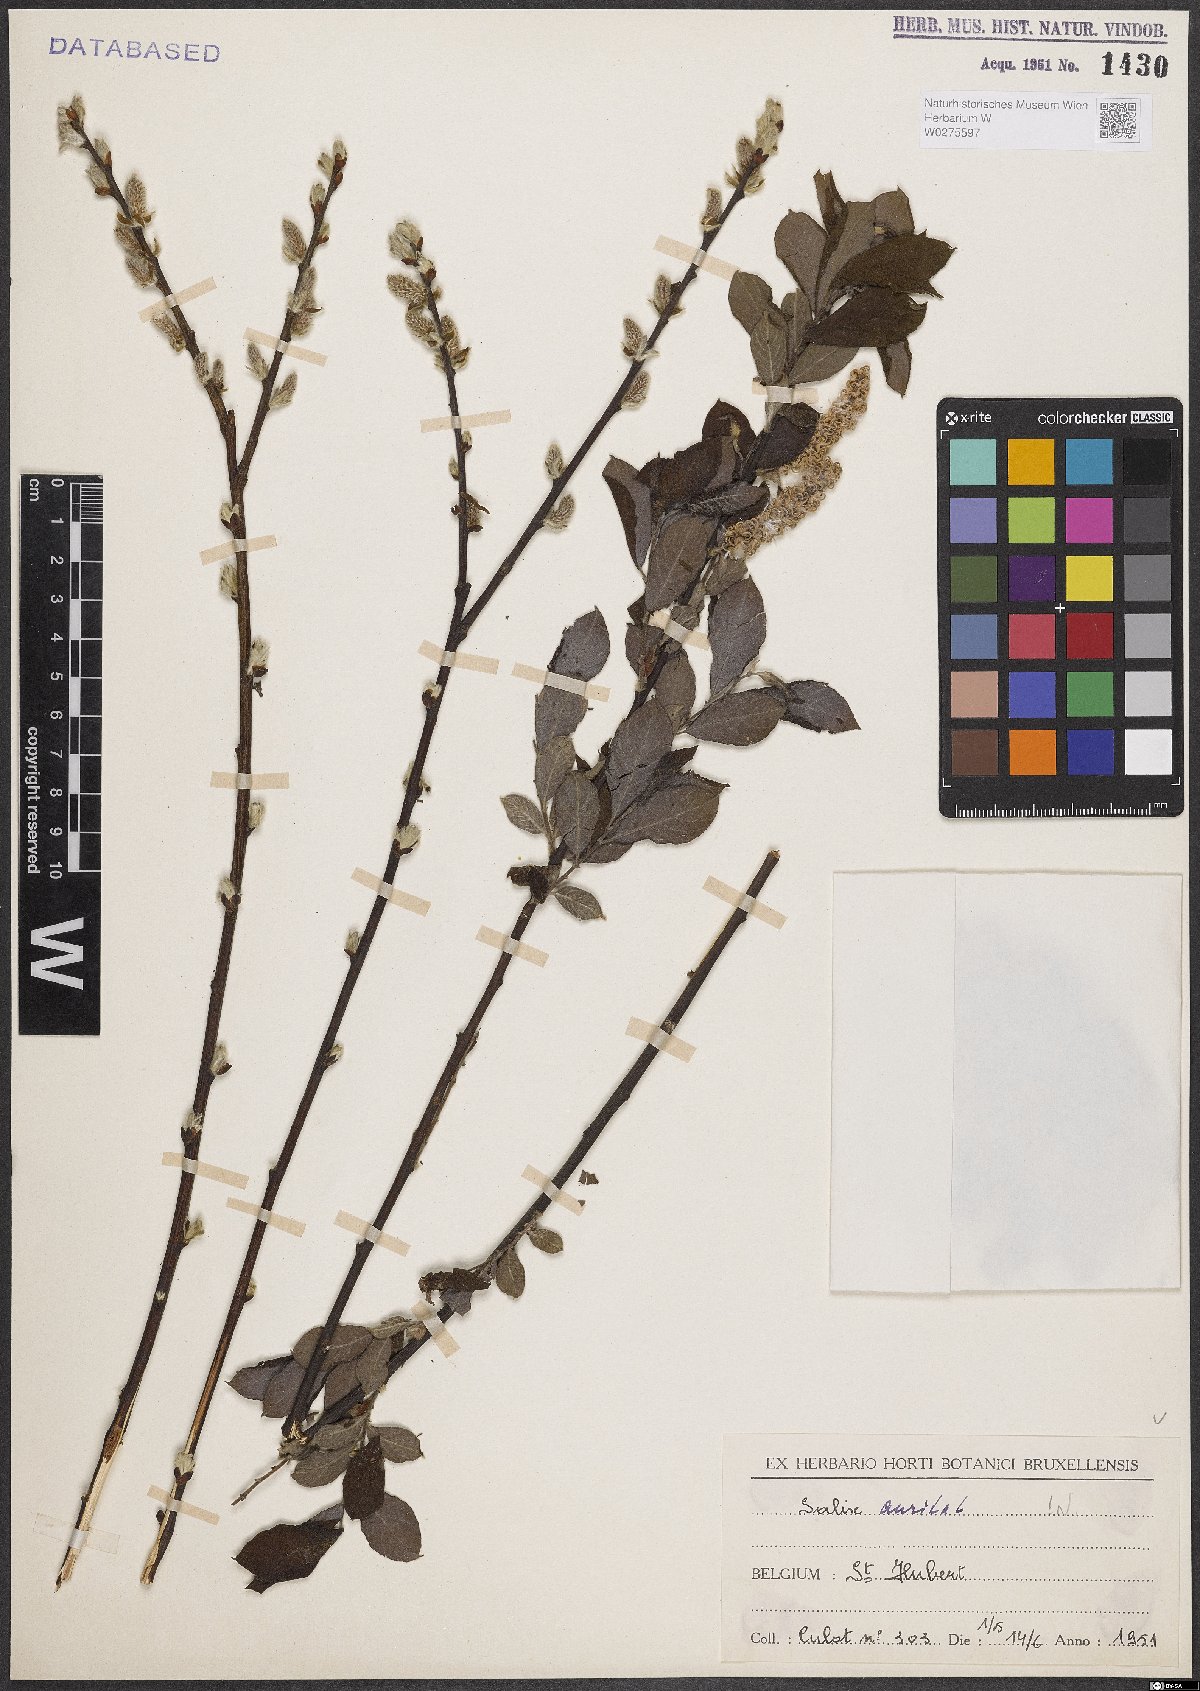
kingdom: Plantae
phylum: Tracheophyta
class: Magnoliopsida
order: Malpighiales
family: Salicaceae
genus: Salix
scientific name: Salix aurita
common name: Eared willow
